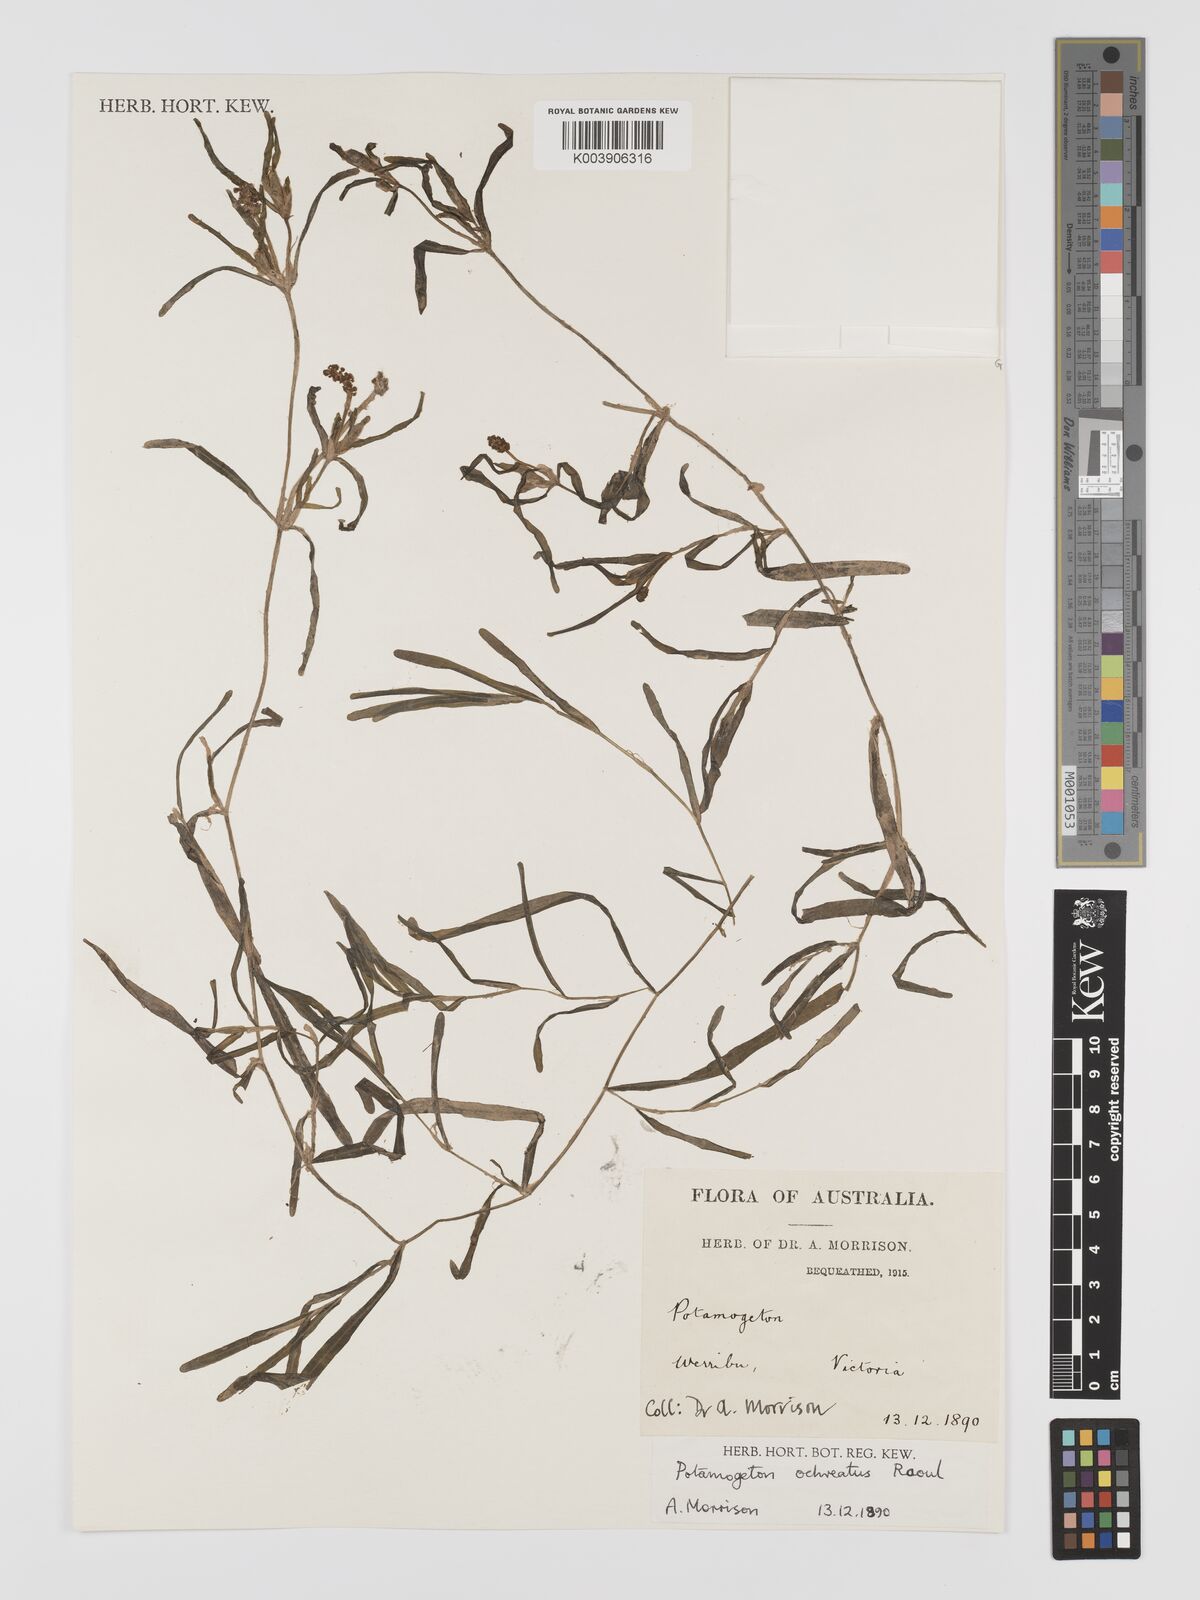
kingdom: Plantae
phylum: Tracheophyta
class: Liliopsida
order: Alismatales
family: Potamogetonaceae
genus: Potamogeton
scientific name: Potamogeton ochreatus
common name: Blunt pondweed
